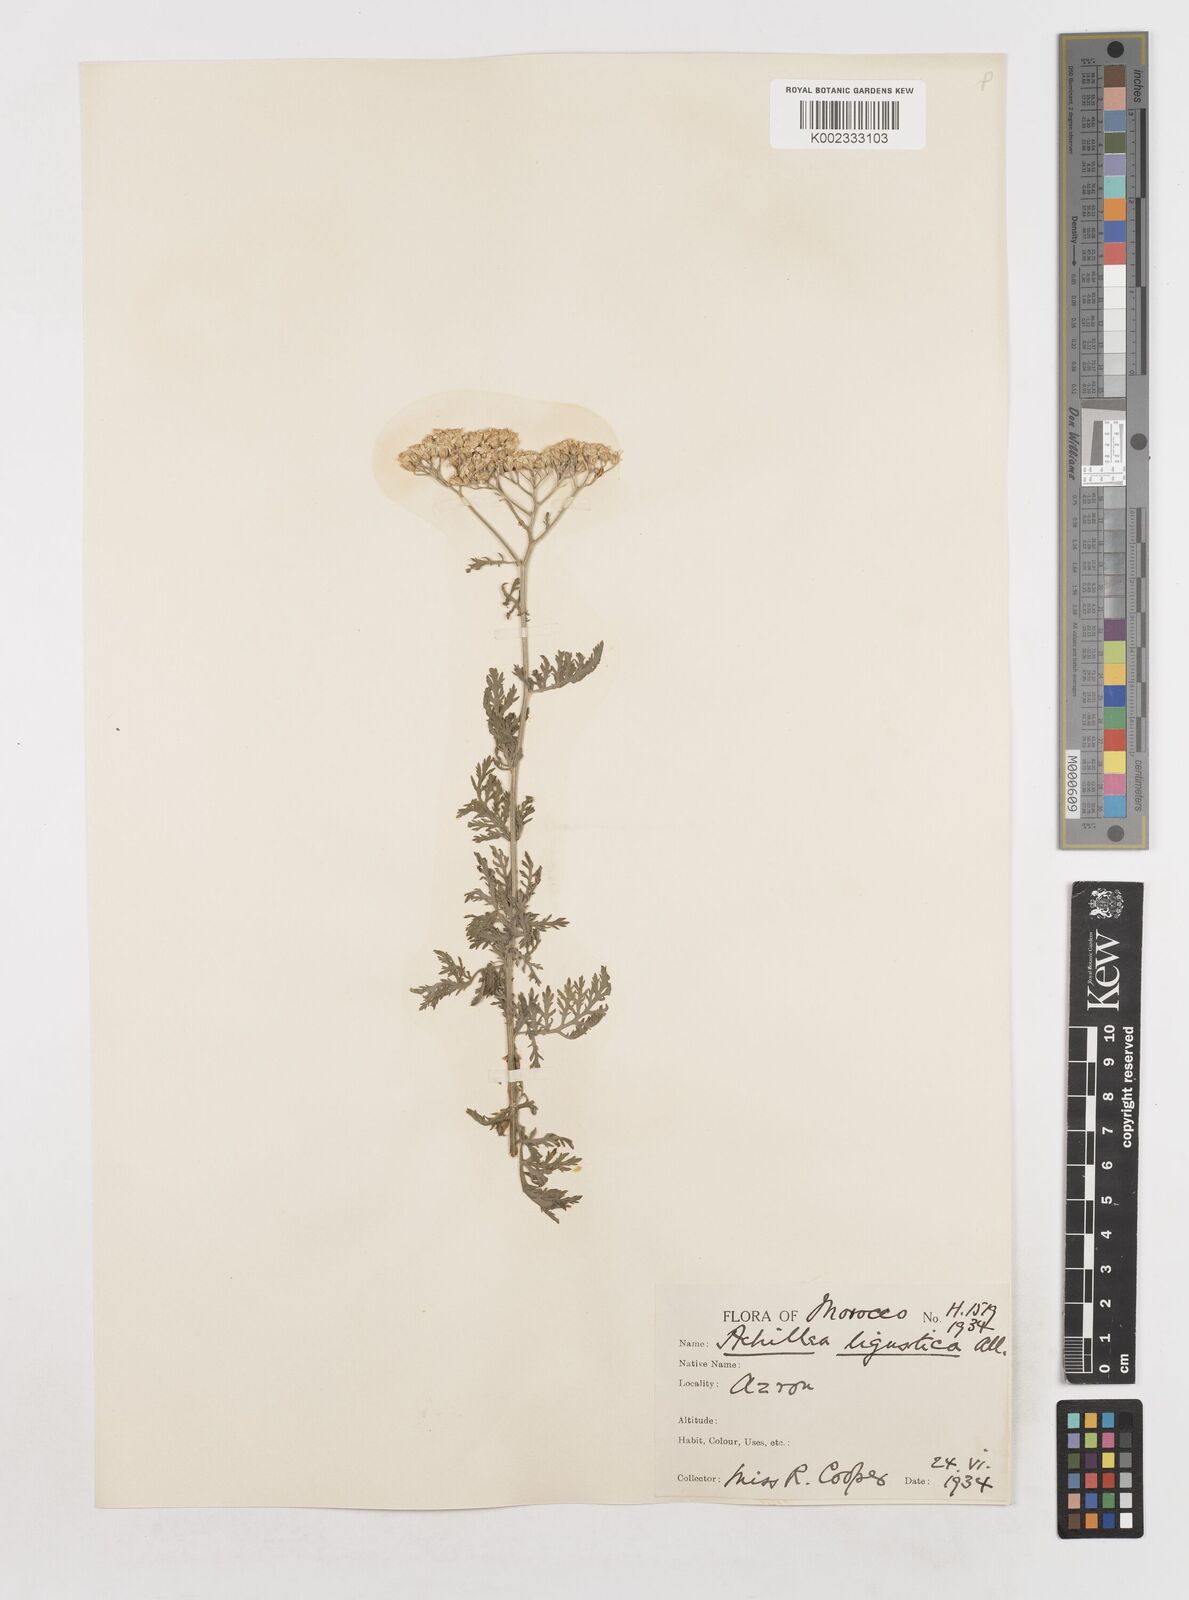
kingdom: Plantae
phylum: Tracheophyta
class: Magnoliopsida
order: Asterales
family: Asteraceae
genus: Achillea
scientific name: Achillea ligustica
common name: Southern yarrow
